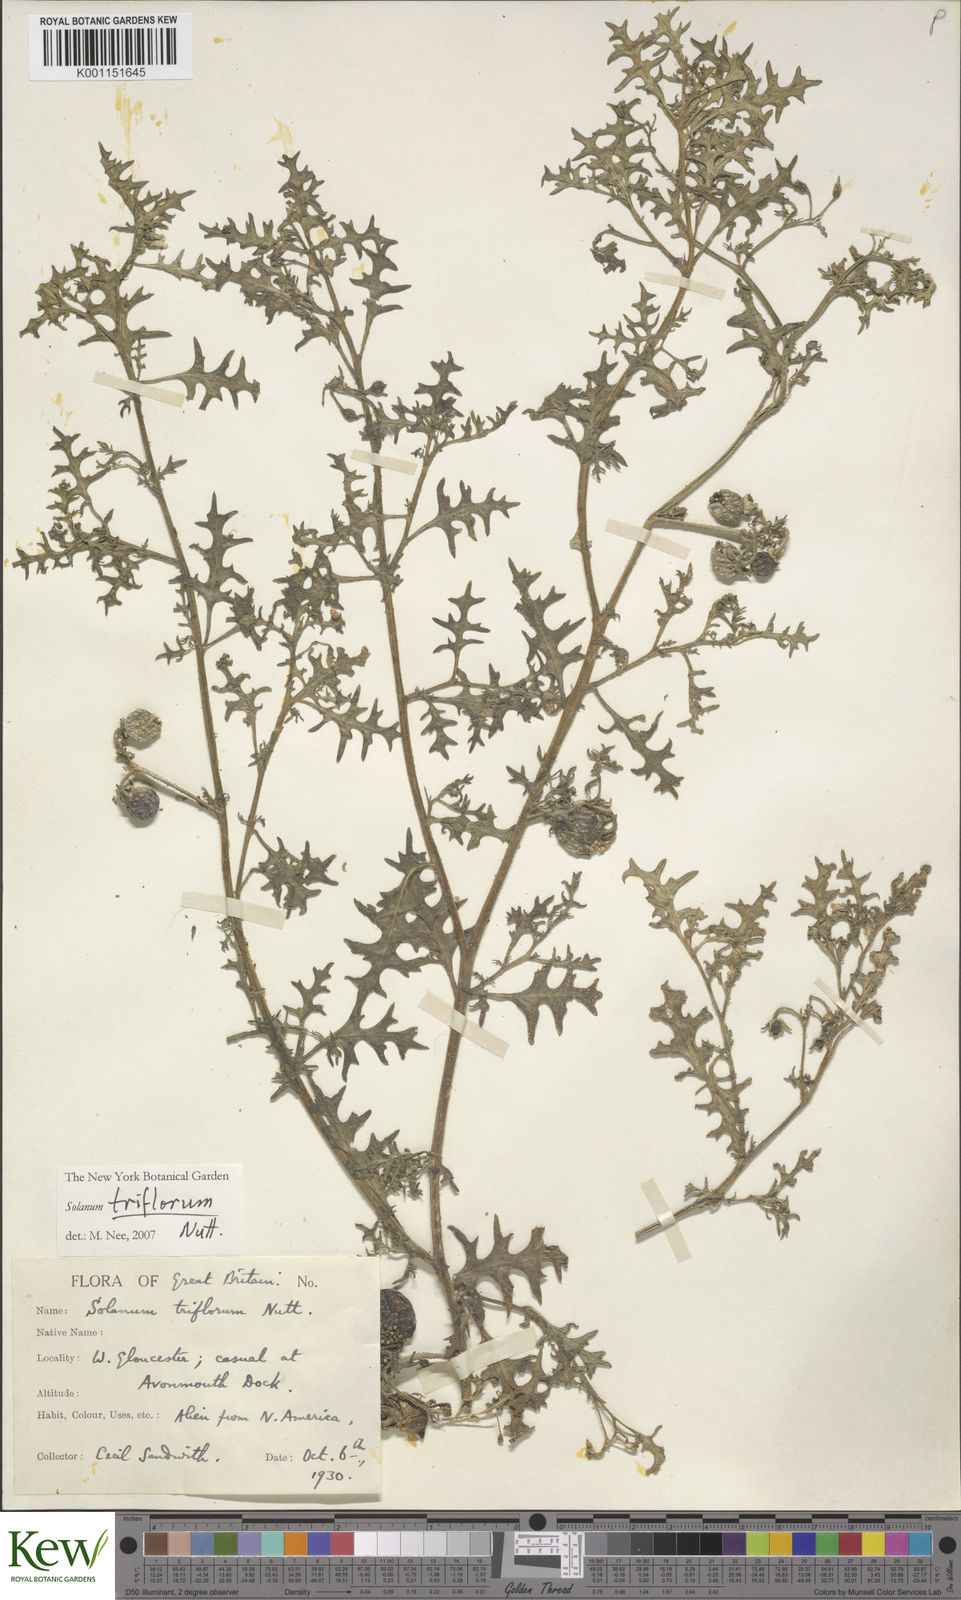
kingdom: Plantae
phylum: Tracheophyta
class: Magnoliopsida
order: Solanales
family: Solanaceae
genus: Solanum
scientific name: Solanum triflorum
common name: Small nightshade
